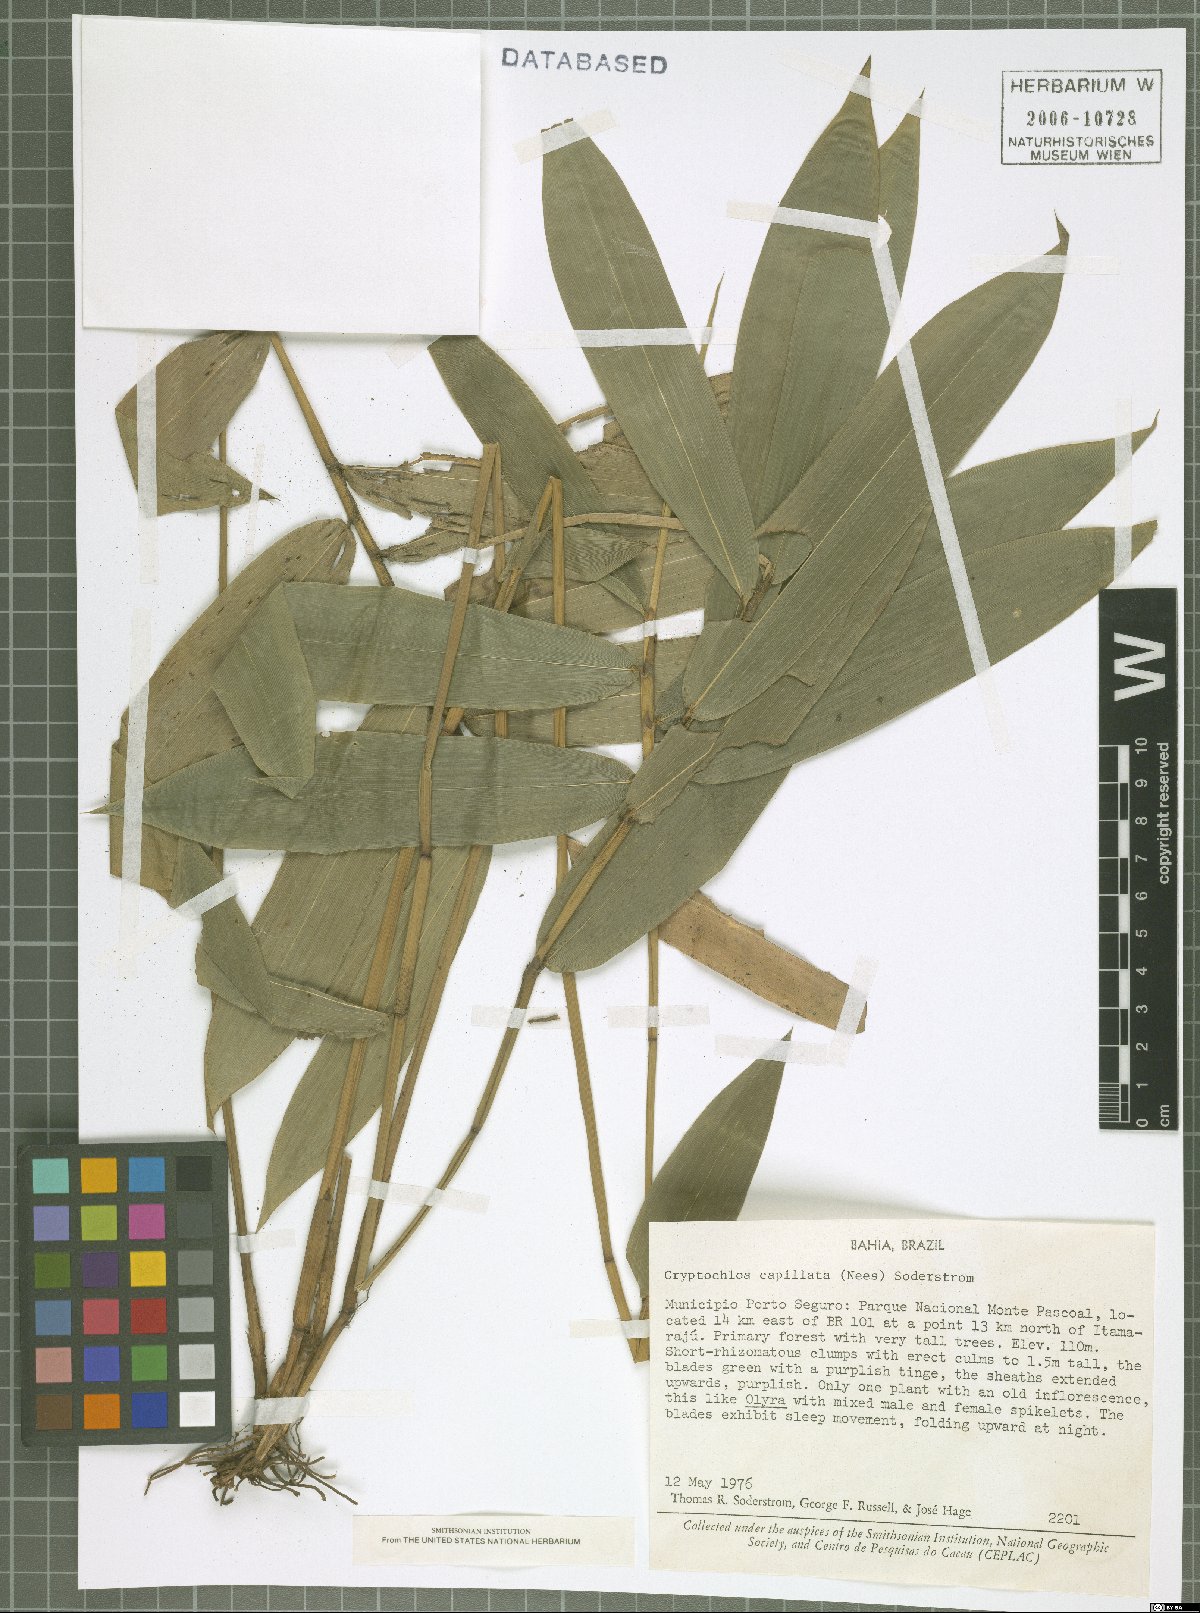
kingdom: Plantae
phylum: Tracheophyta
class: Liliopsida
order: Poales
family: Poaceae
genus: Cryptochloa
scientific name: Cryptochloa capillata
